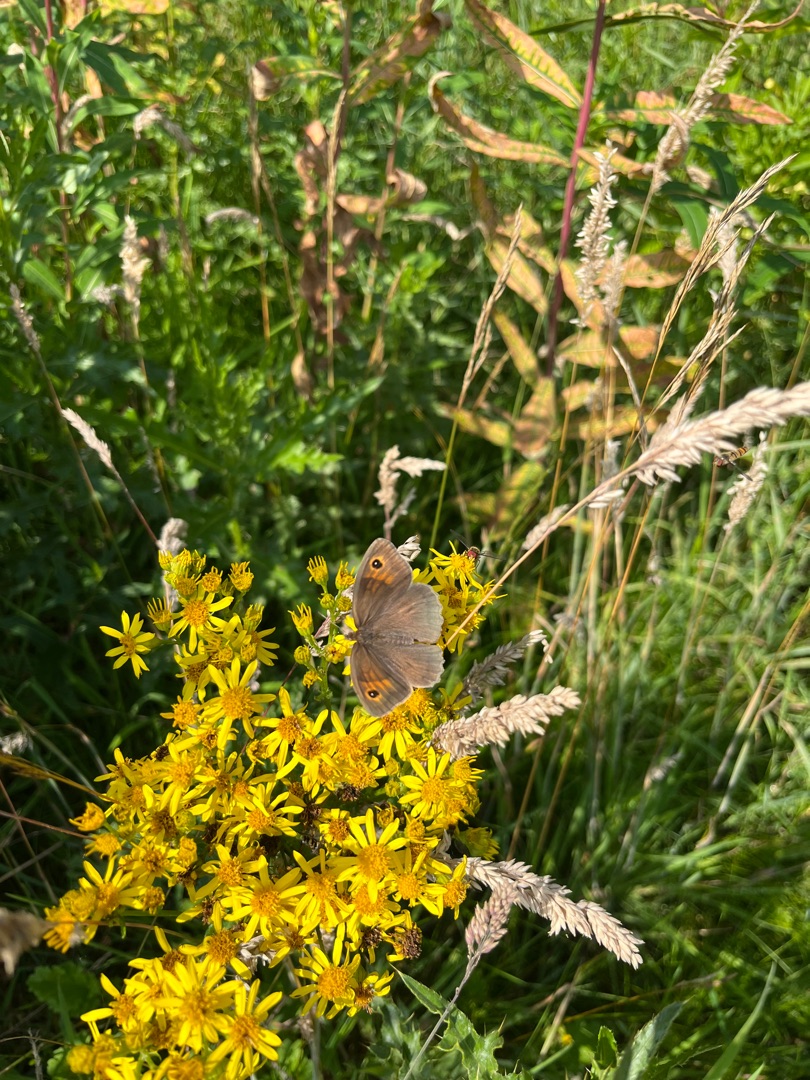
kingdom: Animalia
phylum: Arthropoda
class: Insecta
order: Lepidoptera
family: Nymphalidae
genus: Maniola
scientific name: Maniola jurtina
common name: Græsrandøje
